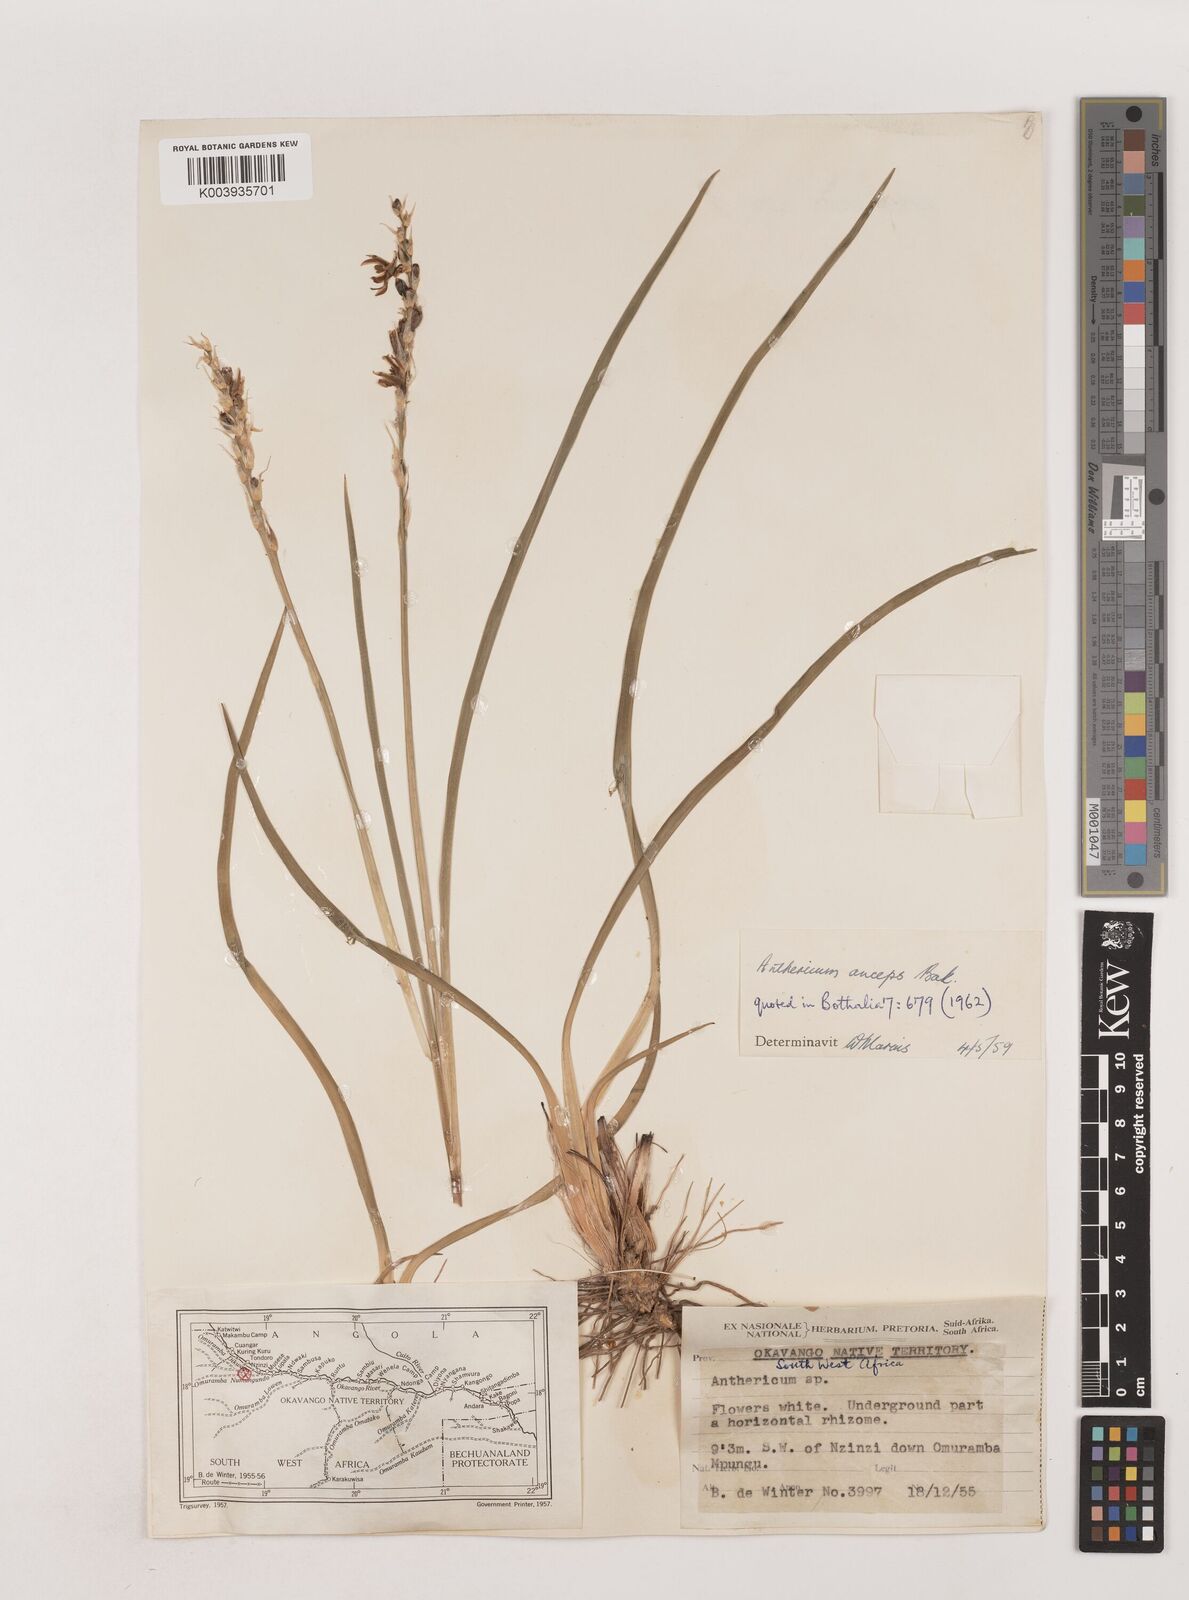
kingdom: Plantae
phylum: Tracheophyta
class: Liliopsida
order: Asparagales
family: Asparagaceae
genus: Chlorophytum
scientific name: Chlorophytum anceps
